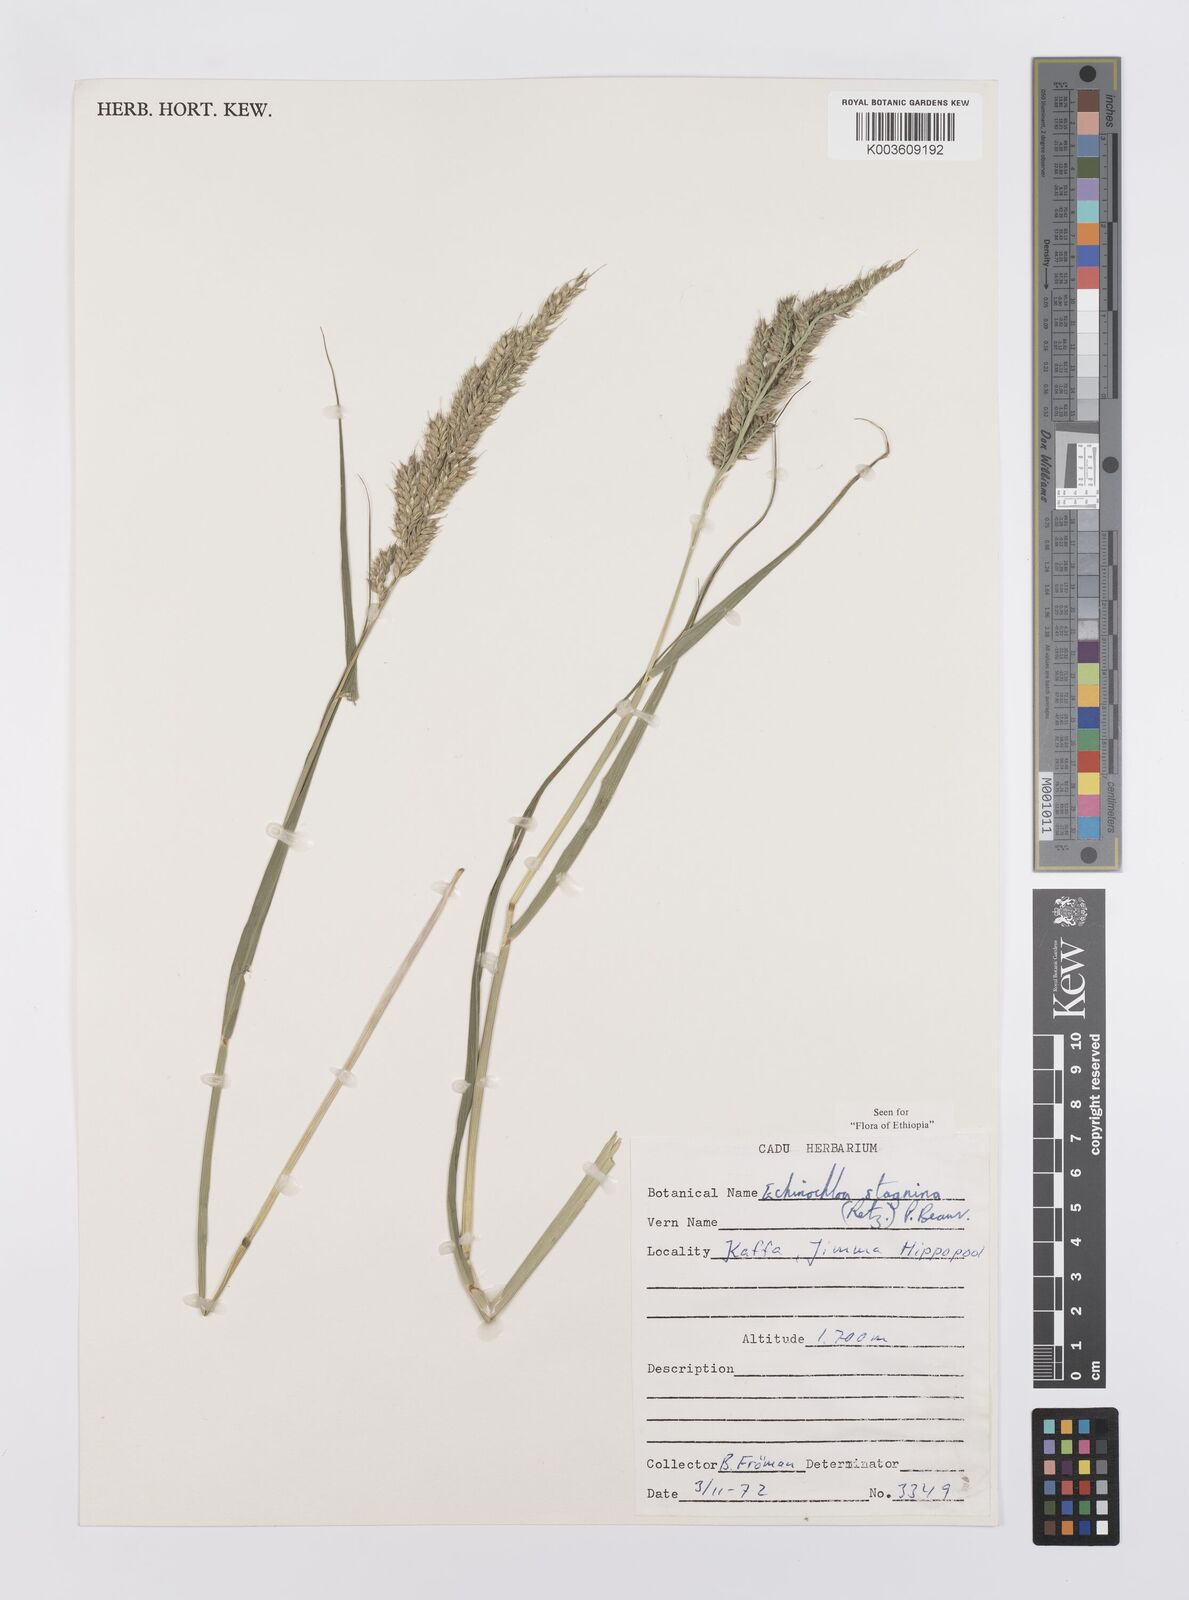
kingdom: Plantae
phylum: Tracheophyta
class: Liliopsida
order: Poales
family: Poaceae
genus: Echinochloa
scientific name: Echinochloa stagnina
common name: Burgu grass
